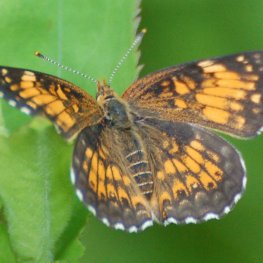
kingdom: Animalia
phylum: Arthropoda
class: Insecta
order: Lepidoptera
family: Nymphalidae
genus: Chlosyne
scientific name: Chlosyne harrisii
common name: Harris's Checkerspot
